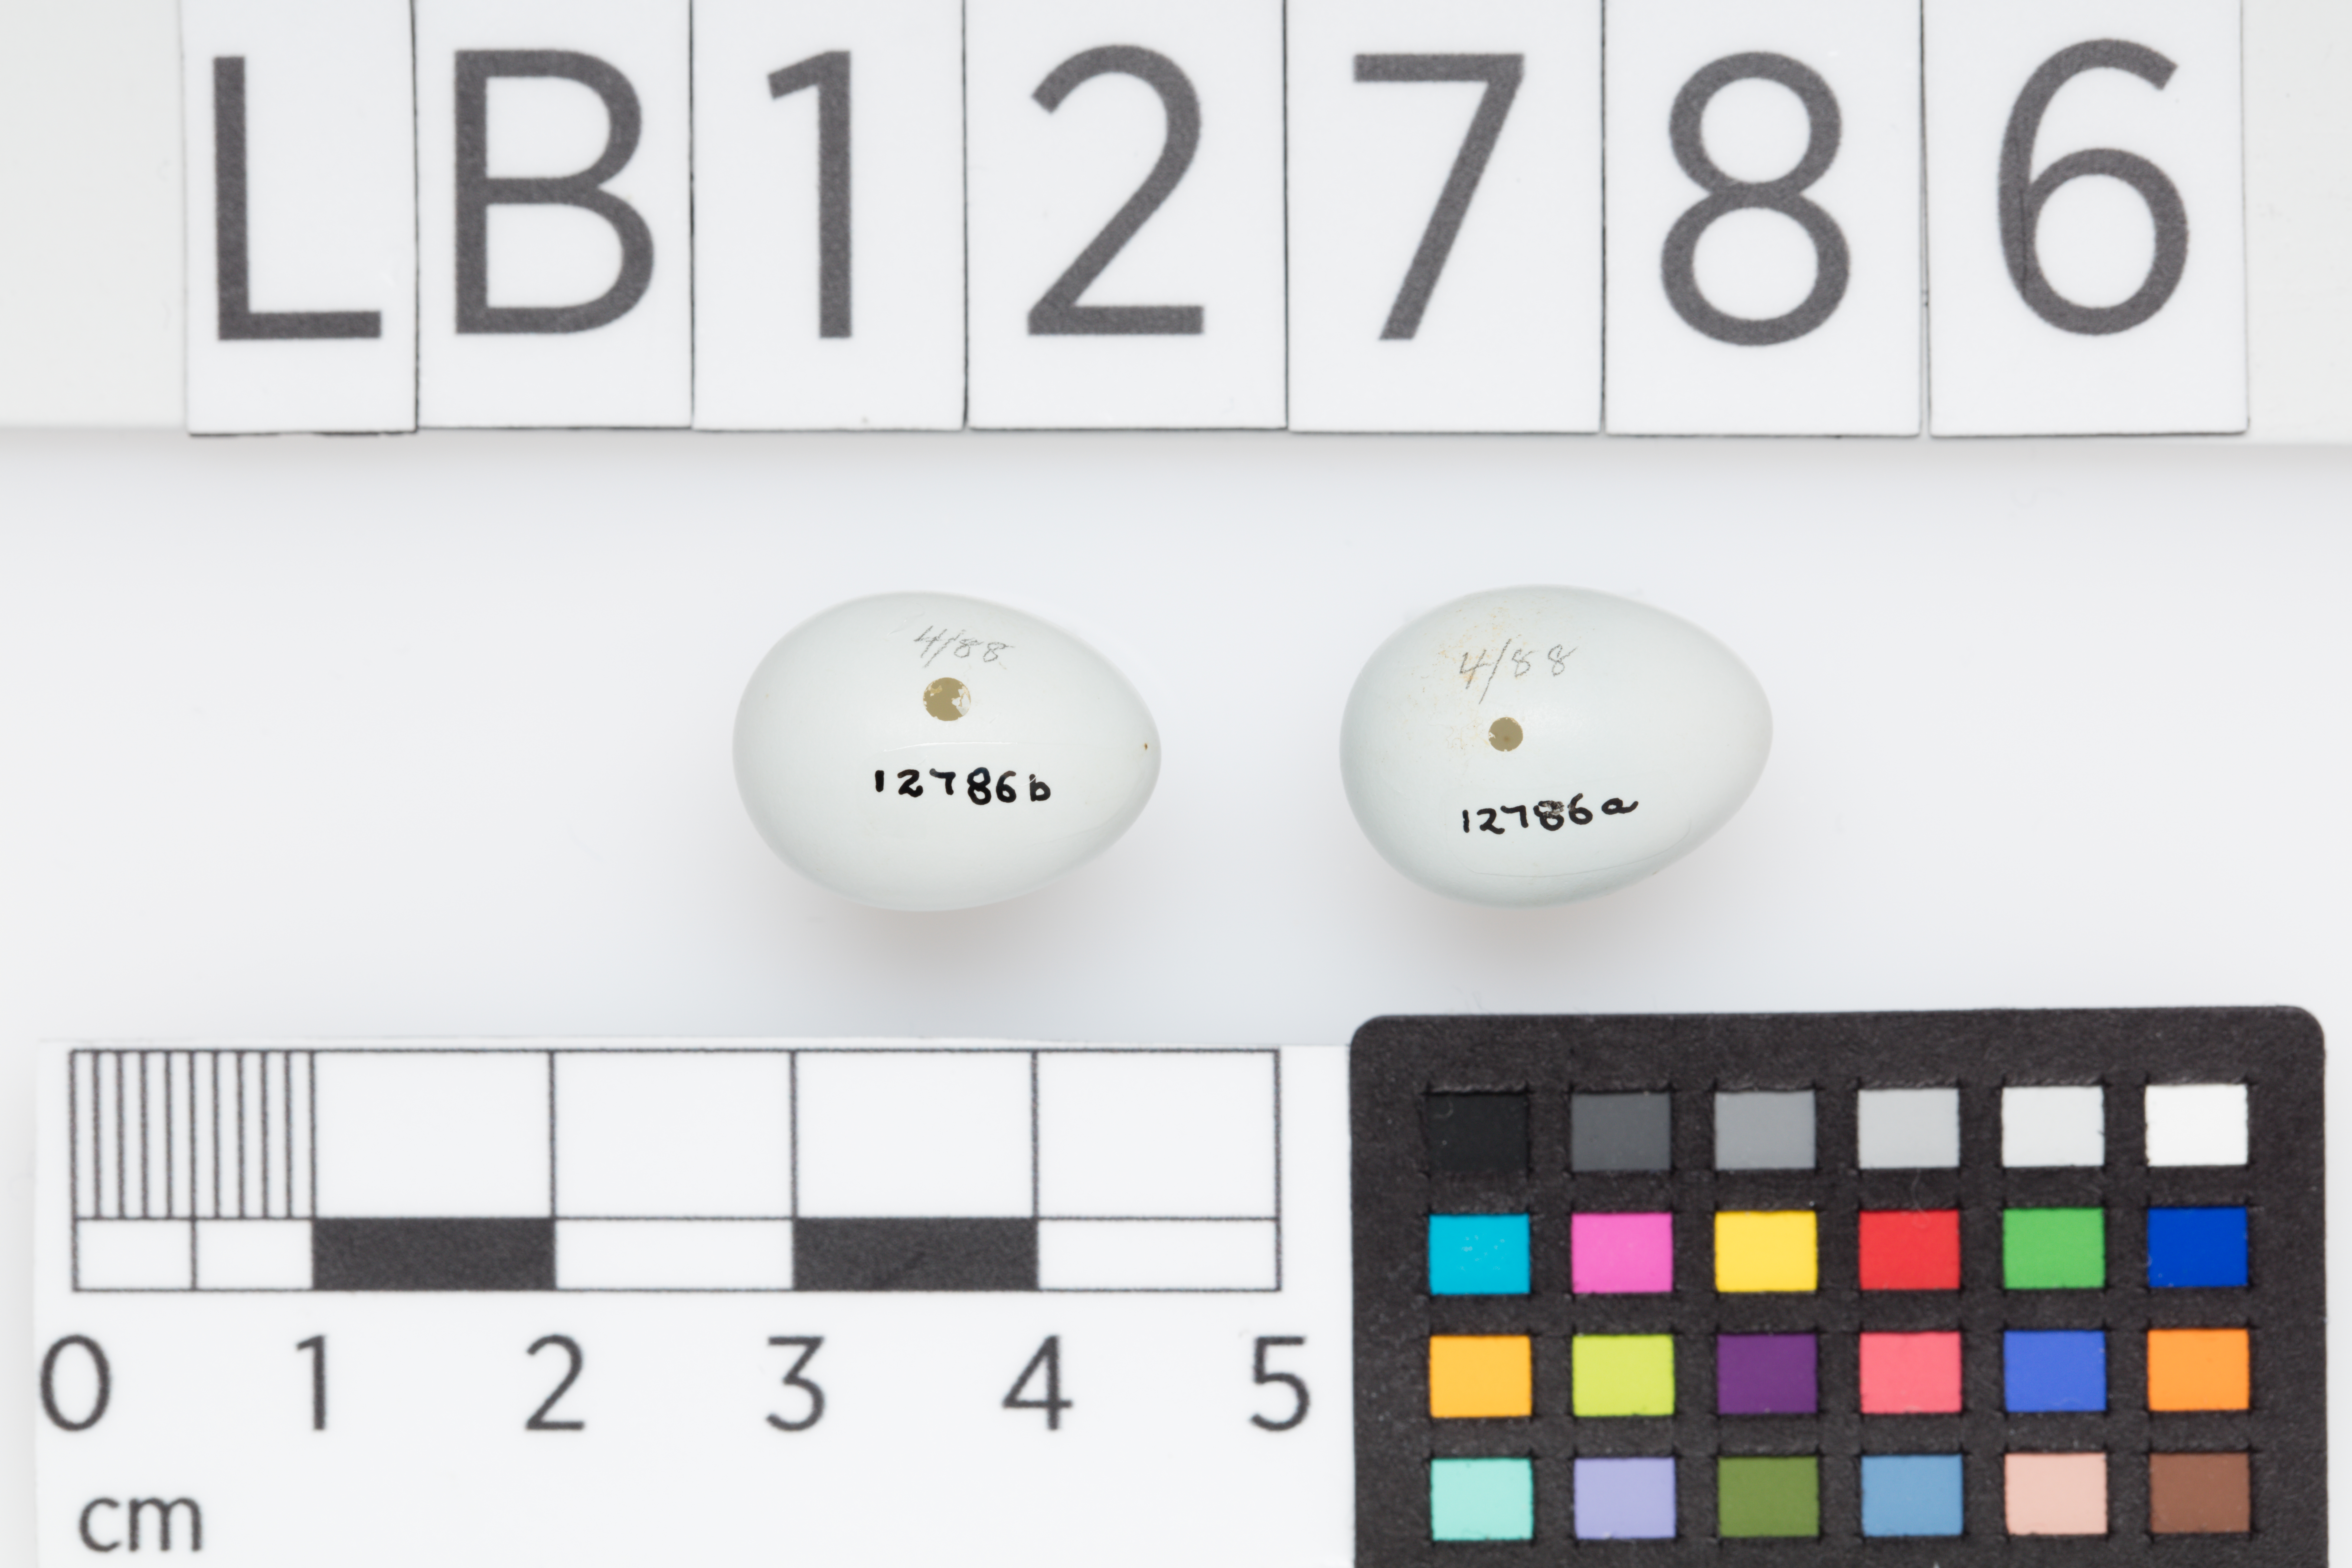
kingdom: Animalia
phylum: Chordata
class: Aves
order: Passeriformes
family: Zosteropidae
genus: Zosterops
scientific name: Zosterops lateralis
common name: Silvereye
